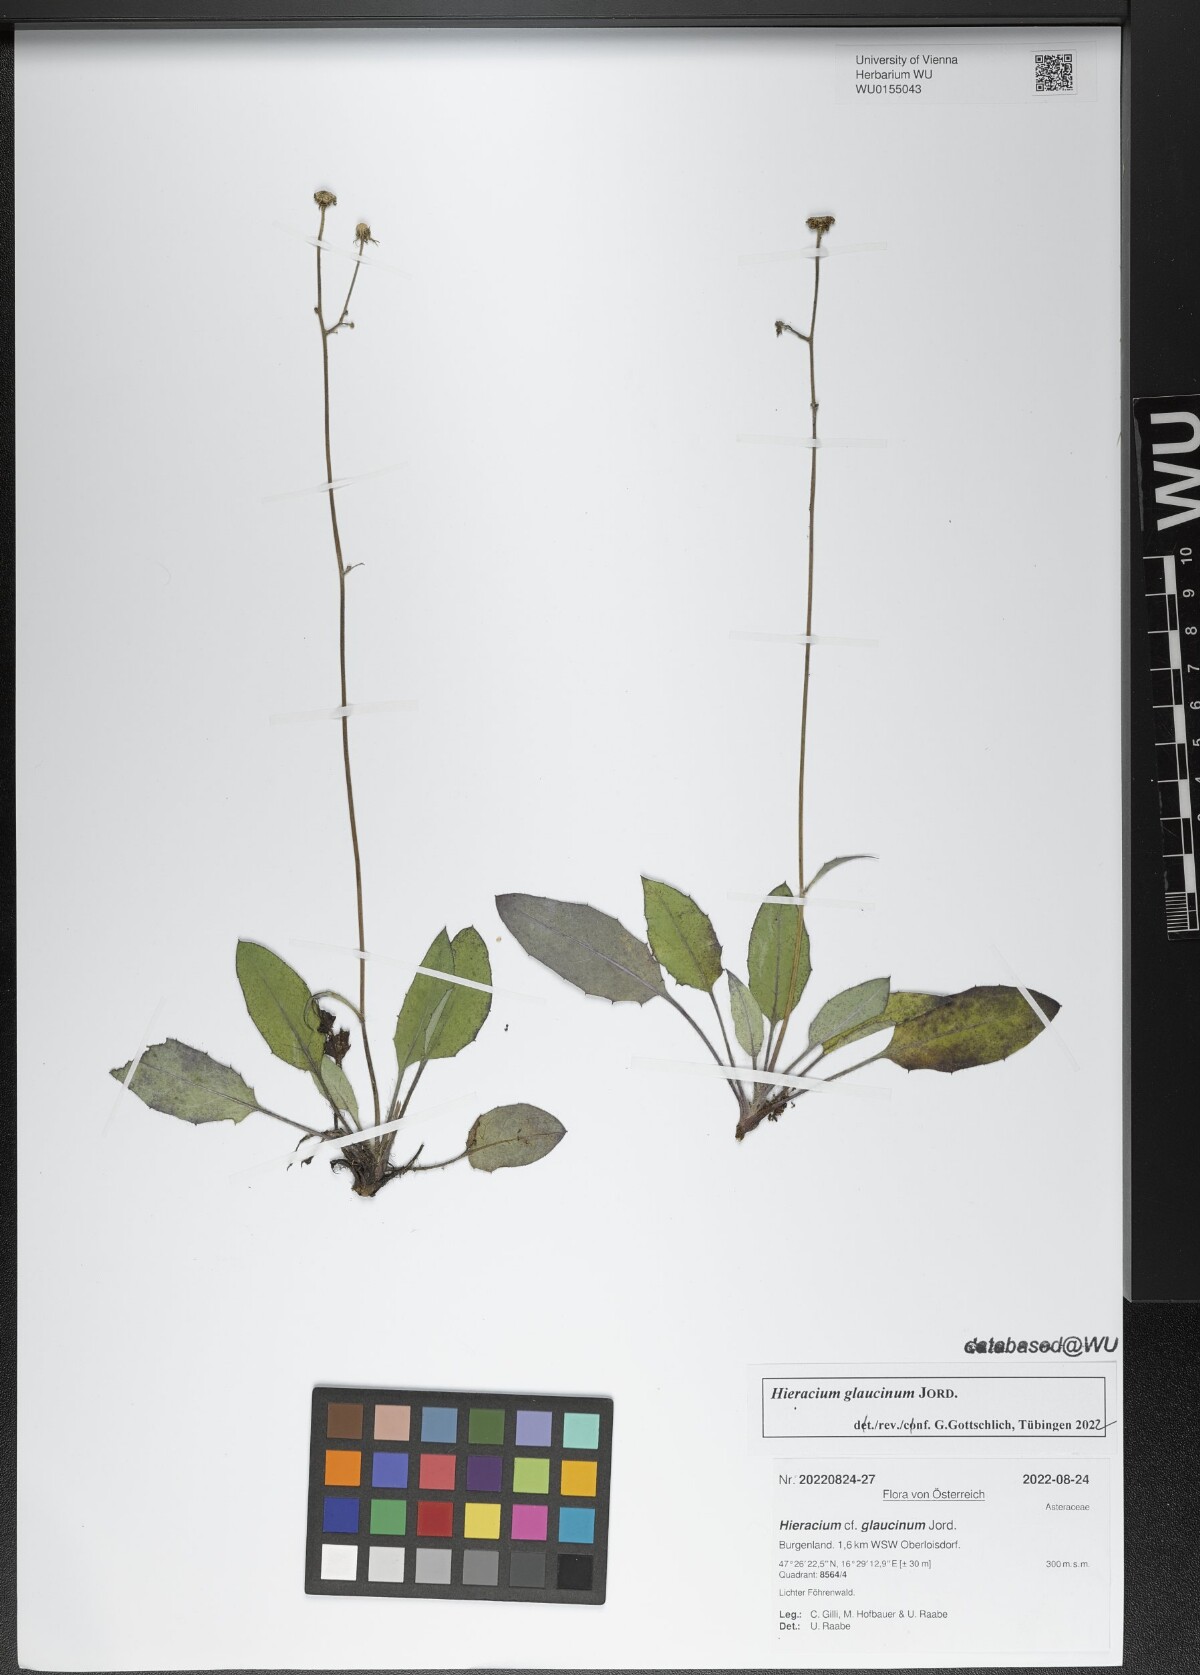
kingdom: Plantae
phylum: Tracheophyta
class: Magnoliopsida
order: Asterales
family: Asteraceae
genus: Hieracium
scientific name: Hieracium glaucinum
